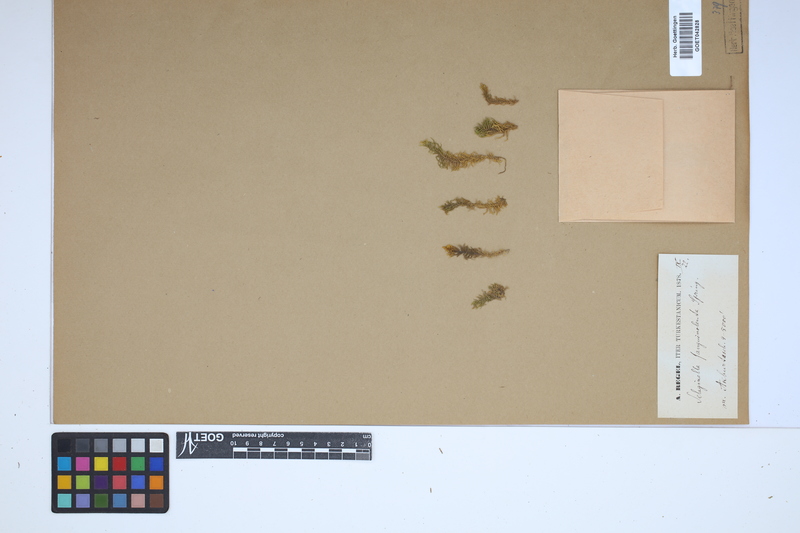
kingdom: Plantae
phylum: Tracheophyta
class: Lycopodiopsida
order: Selaginellales
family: Selaginellaceae
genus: Selaginella
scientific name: Selaginella sanguinolenta
